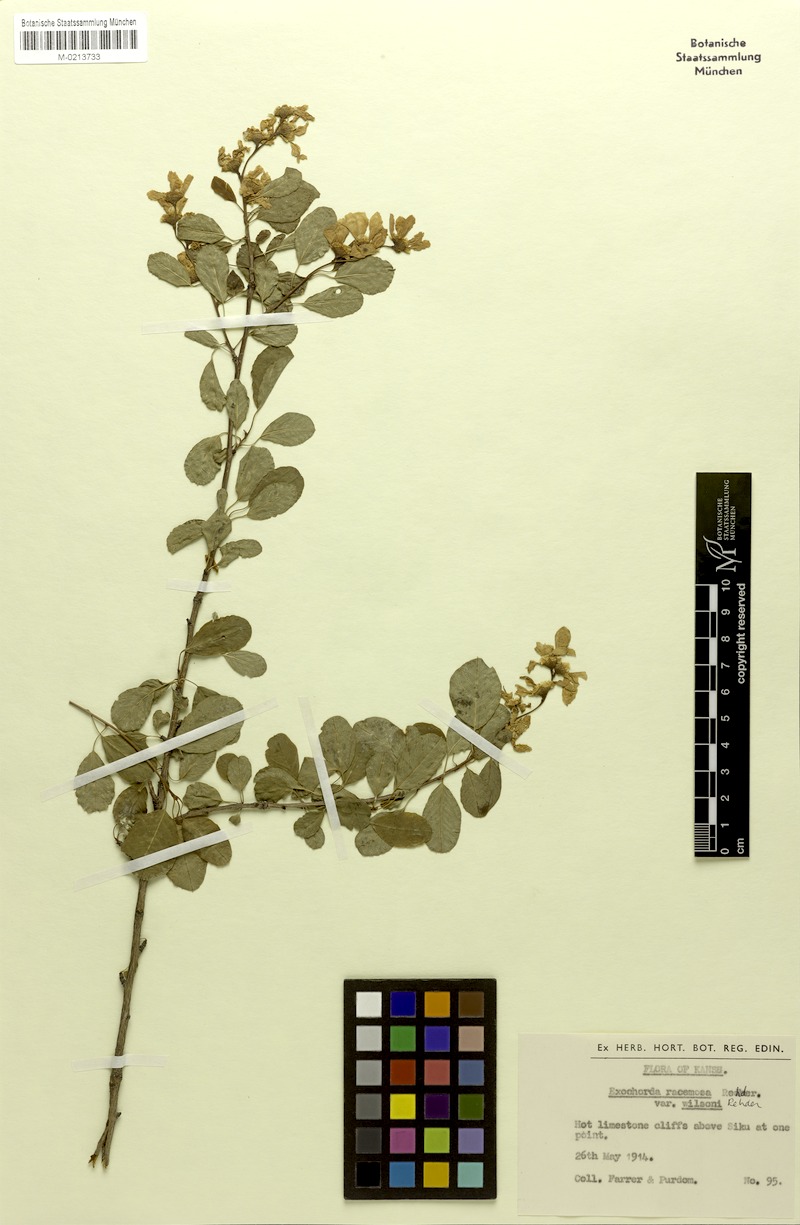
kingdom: Plantae
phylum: Tracheophyta
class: Magnoliopsida
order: Rosales
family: Rosaceae
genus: Exochorda
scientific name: Exochorda racemosa
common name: Common pearlbrush
